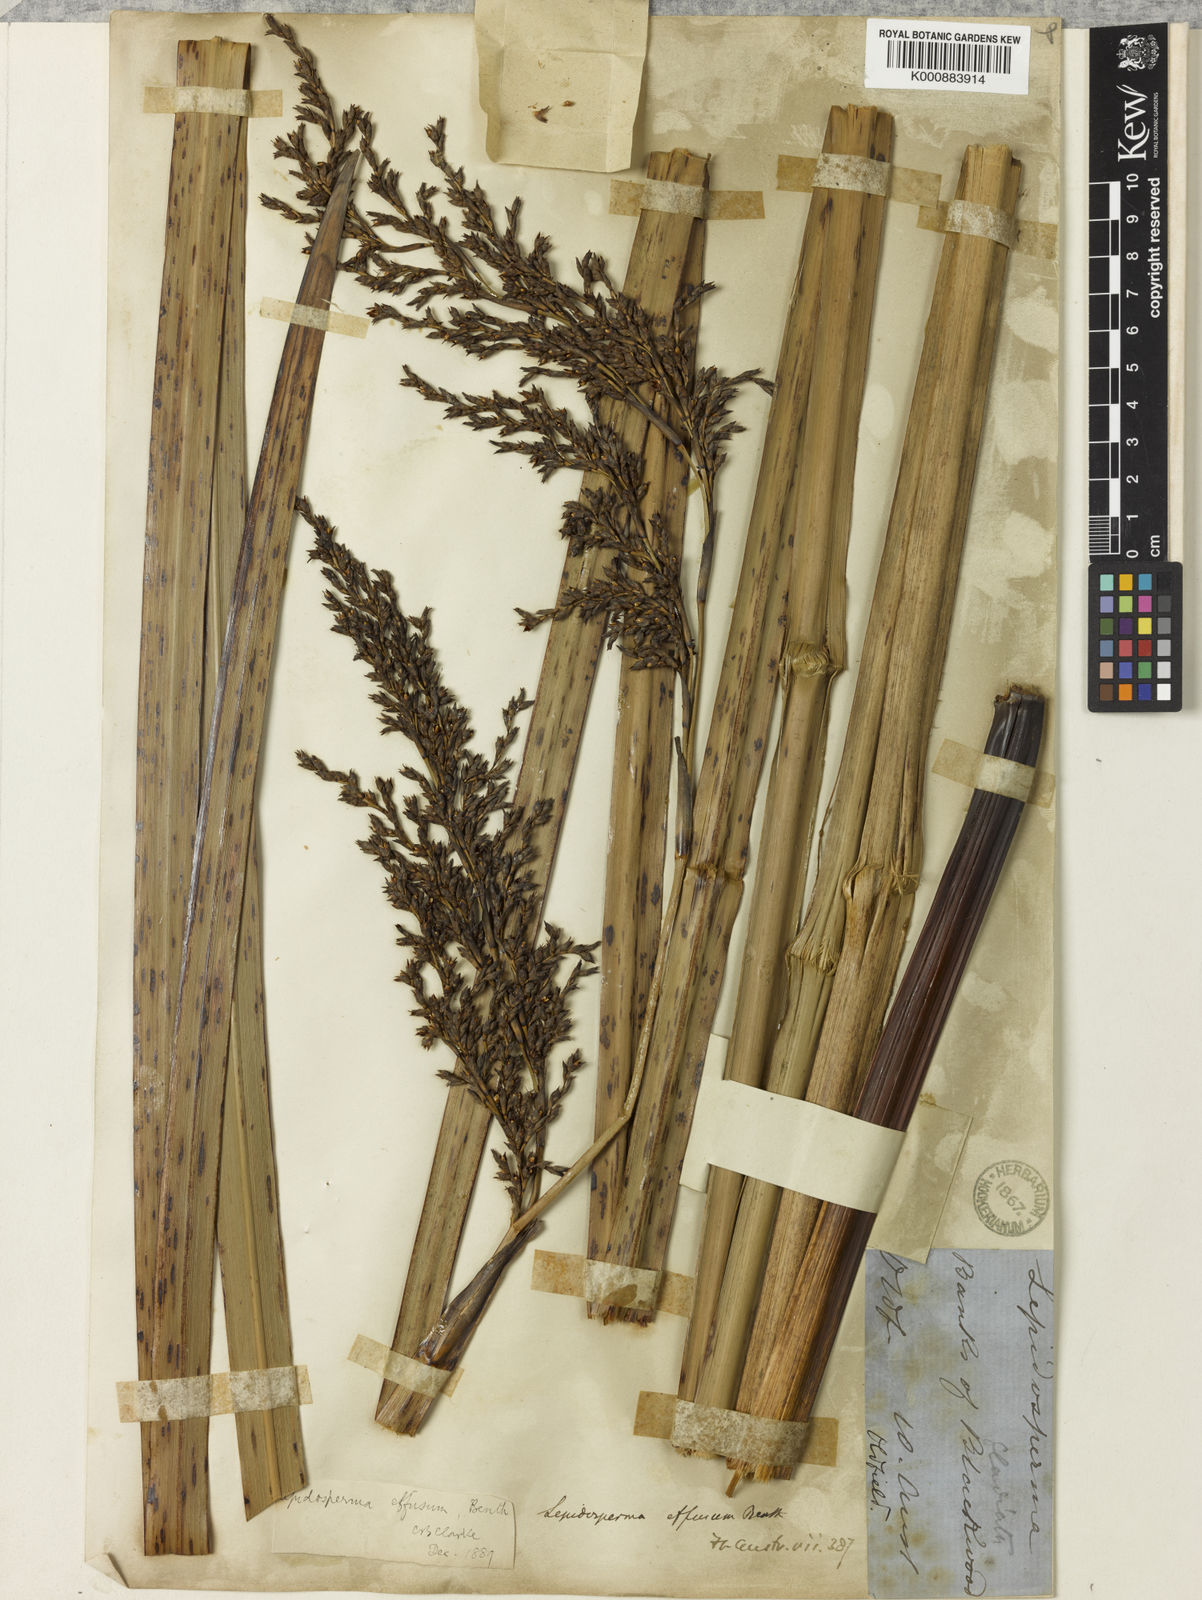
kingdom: Plantae
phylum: Tracheophyta
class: Liliopsida
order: Poales
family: Cyperaceae
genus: Lepidosperma
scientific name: Lepidosperma effusum
